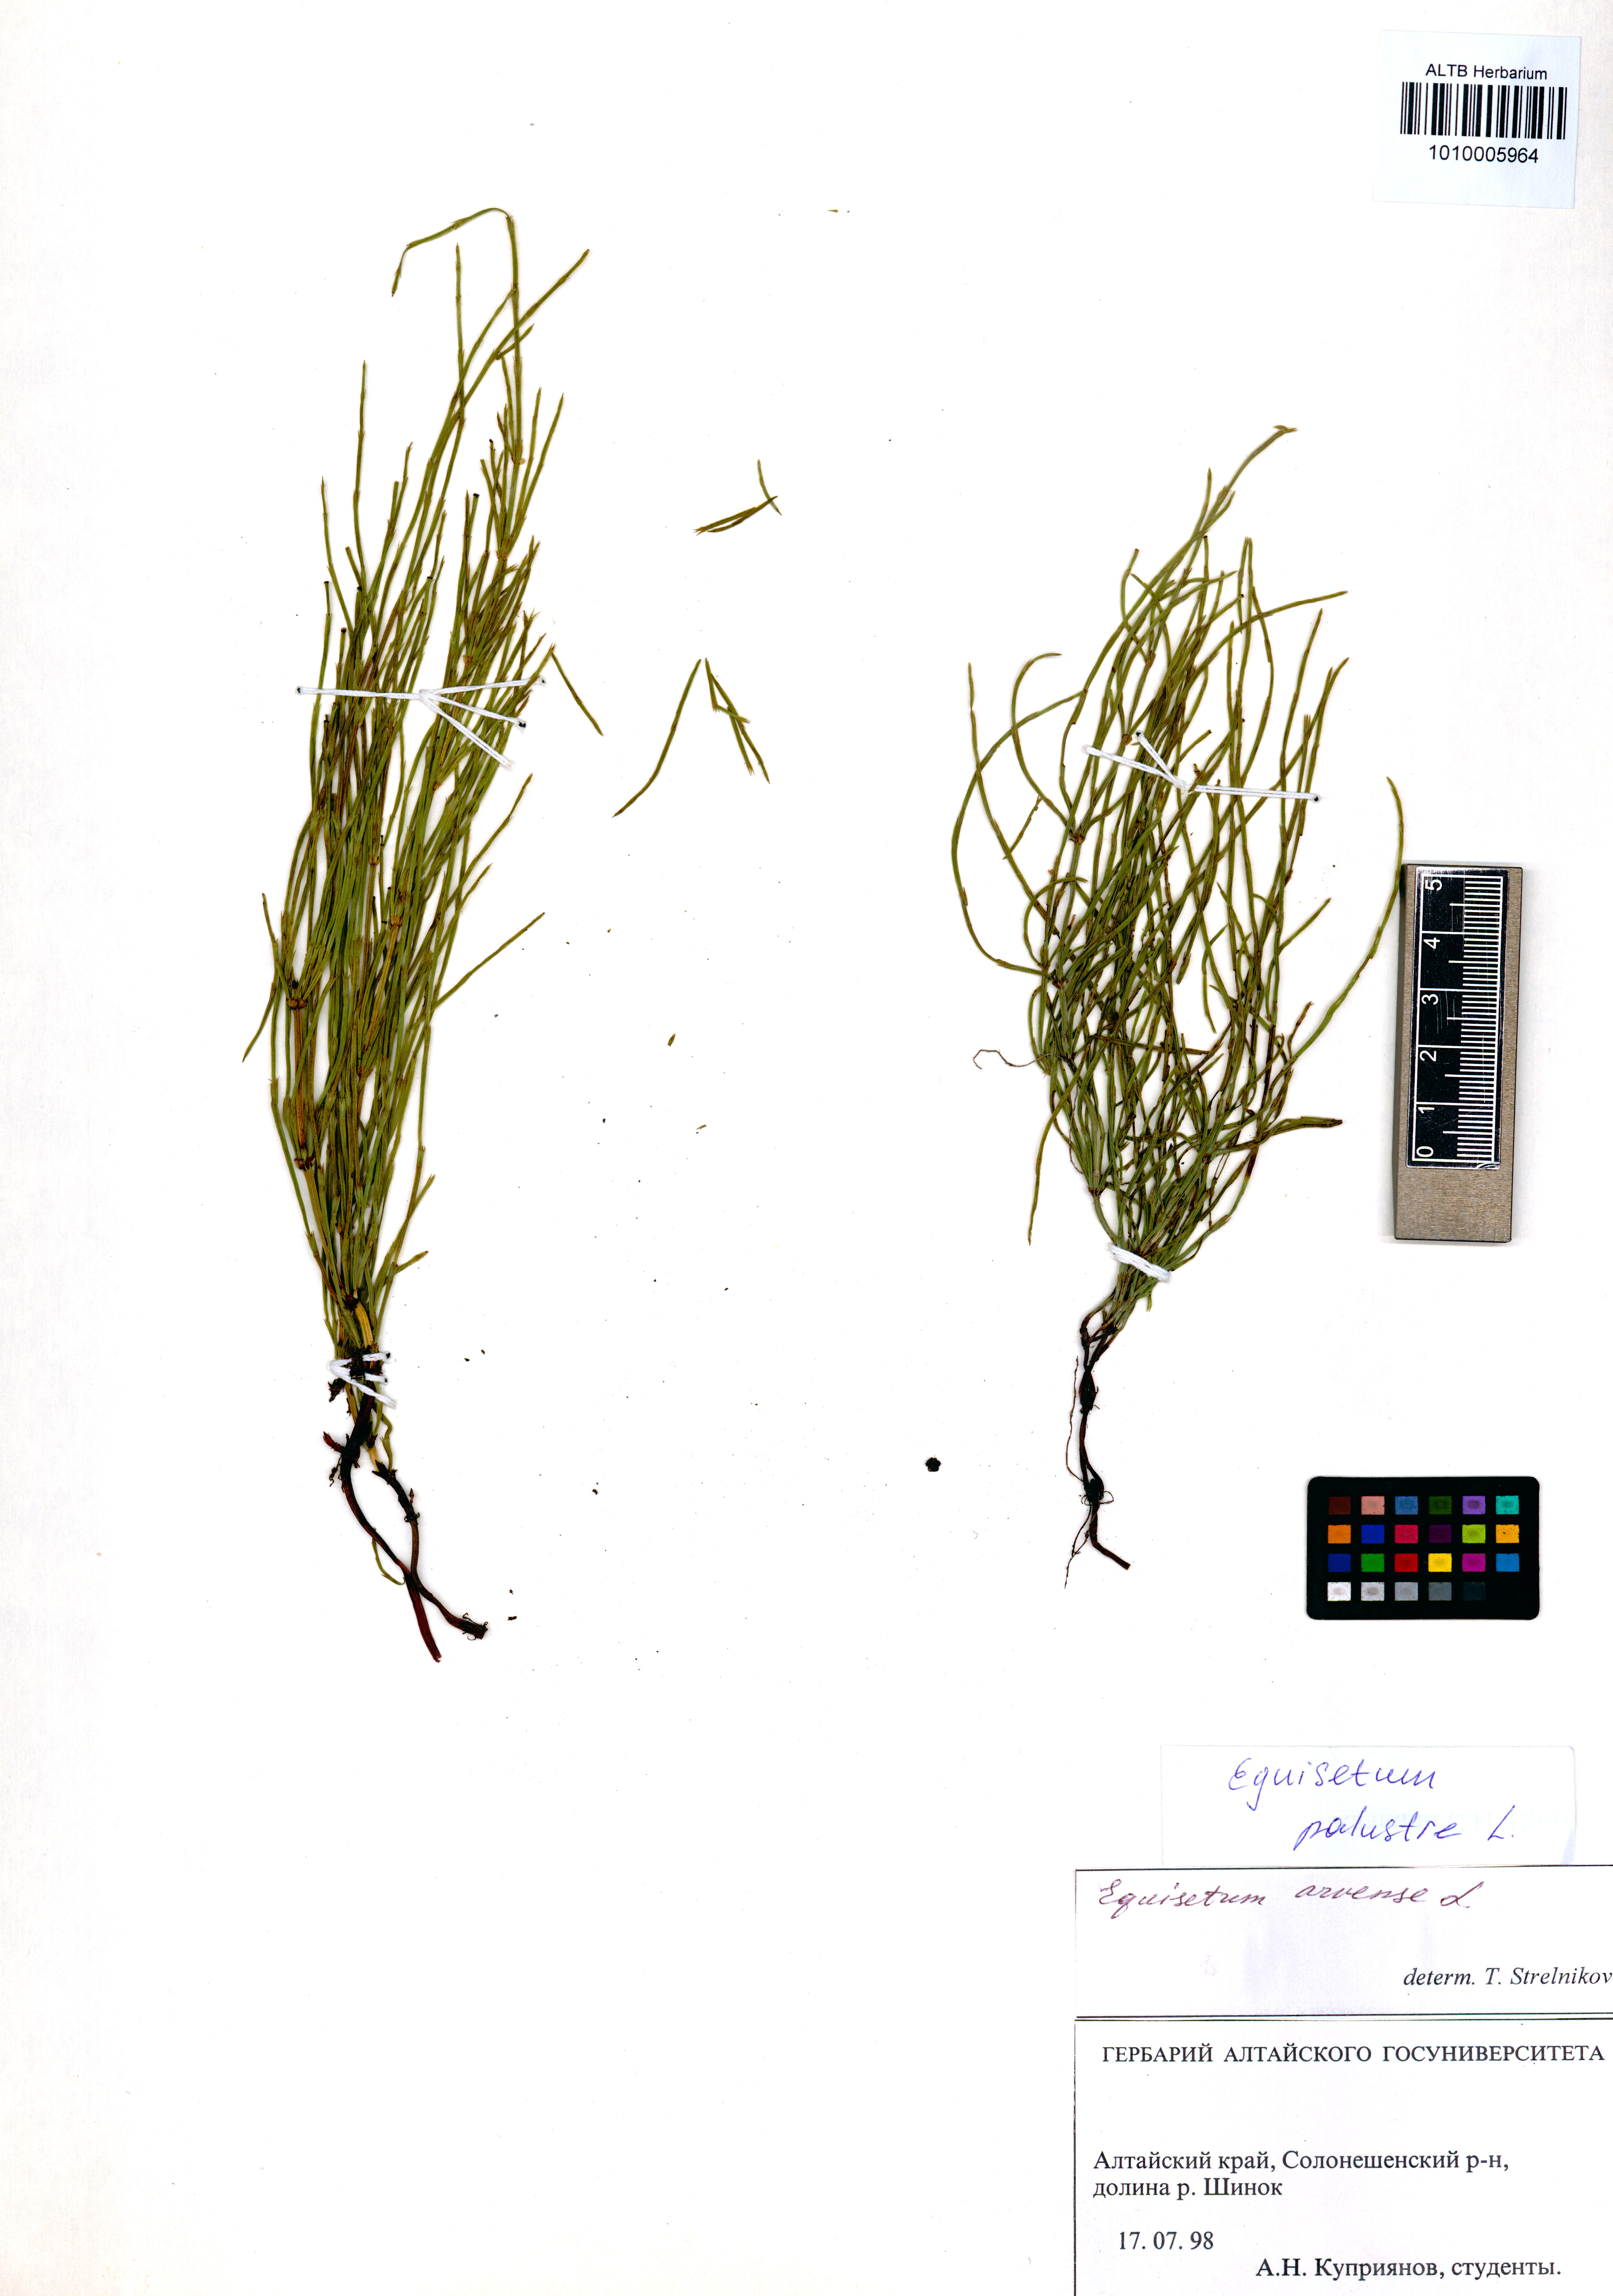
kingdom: Plantae
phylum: Tracheophyta
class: Polypodiopsida
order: Equisetales
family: Equisetaceae
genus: Equisetum
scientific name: Equisetum palustre
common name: Marsh horsetail
